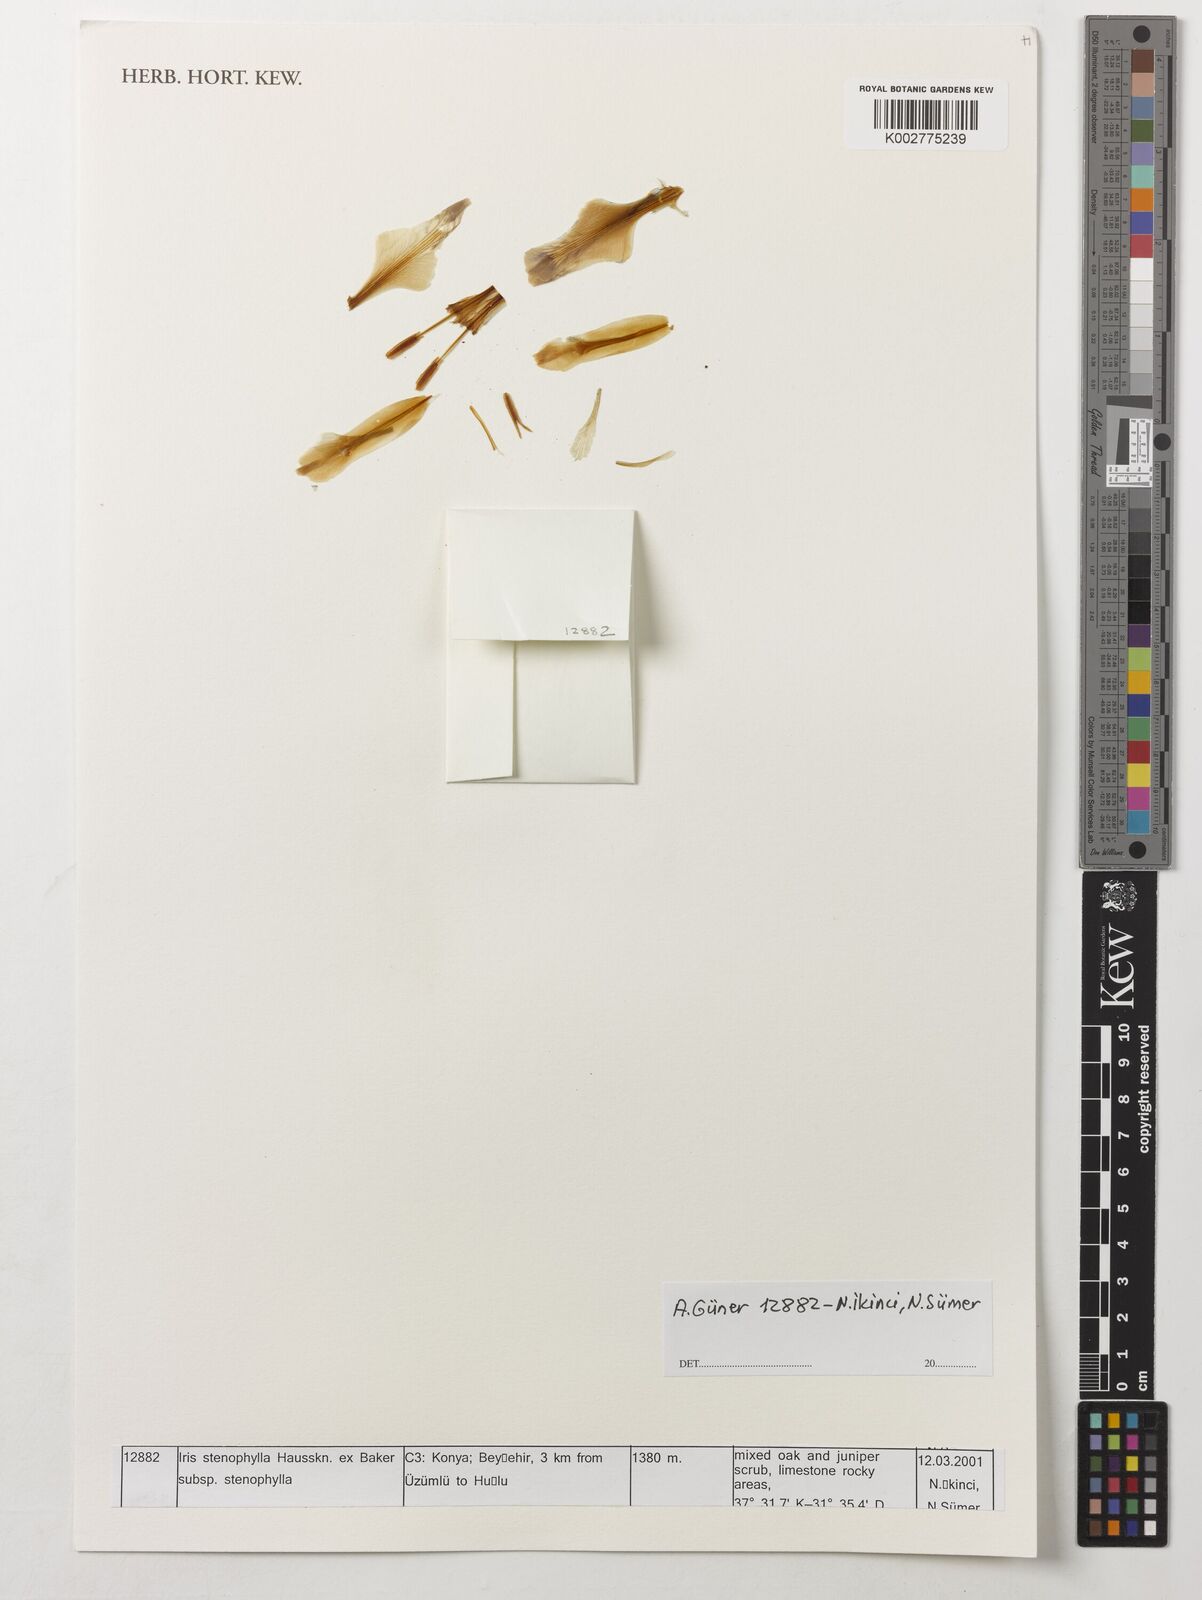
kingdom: Plantae
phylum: Tracheophyta
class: Liliopsida
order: Asparagales
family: Iridaceae
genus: Iris
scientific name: Iris stenophylla
